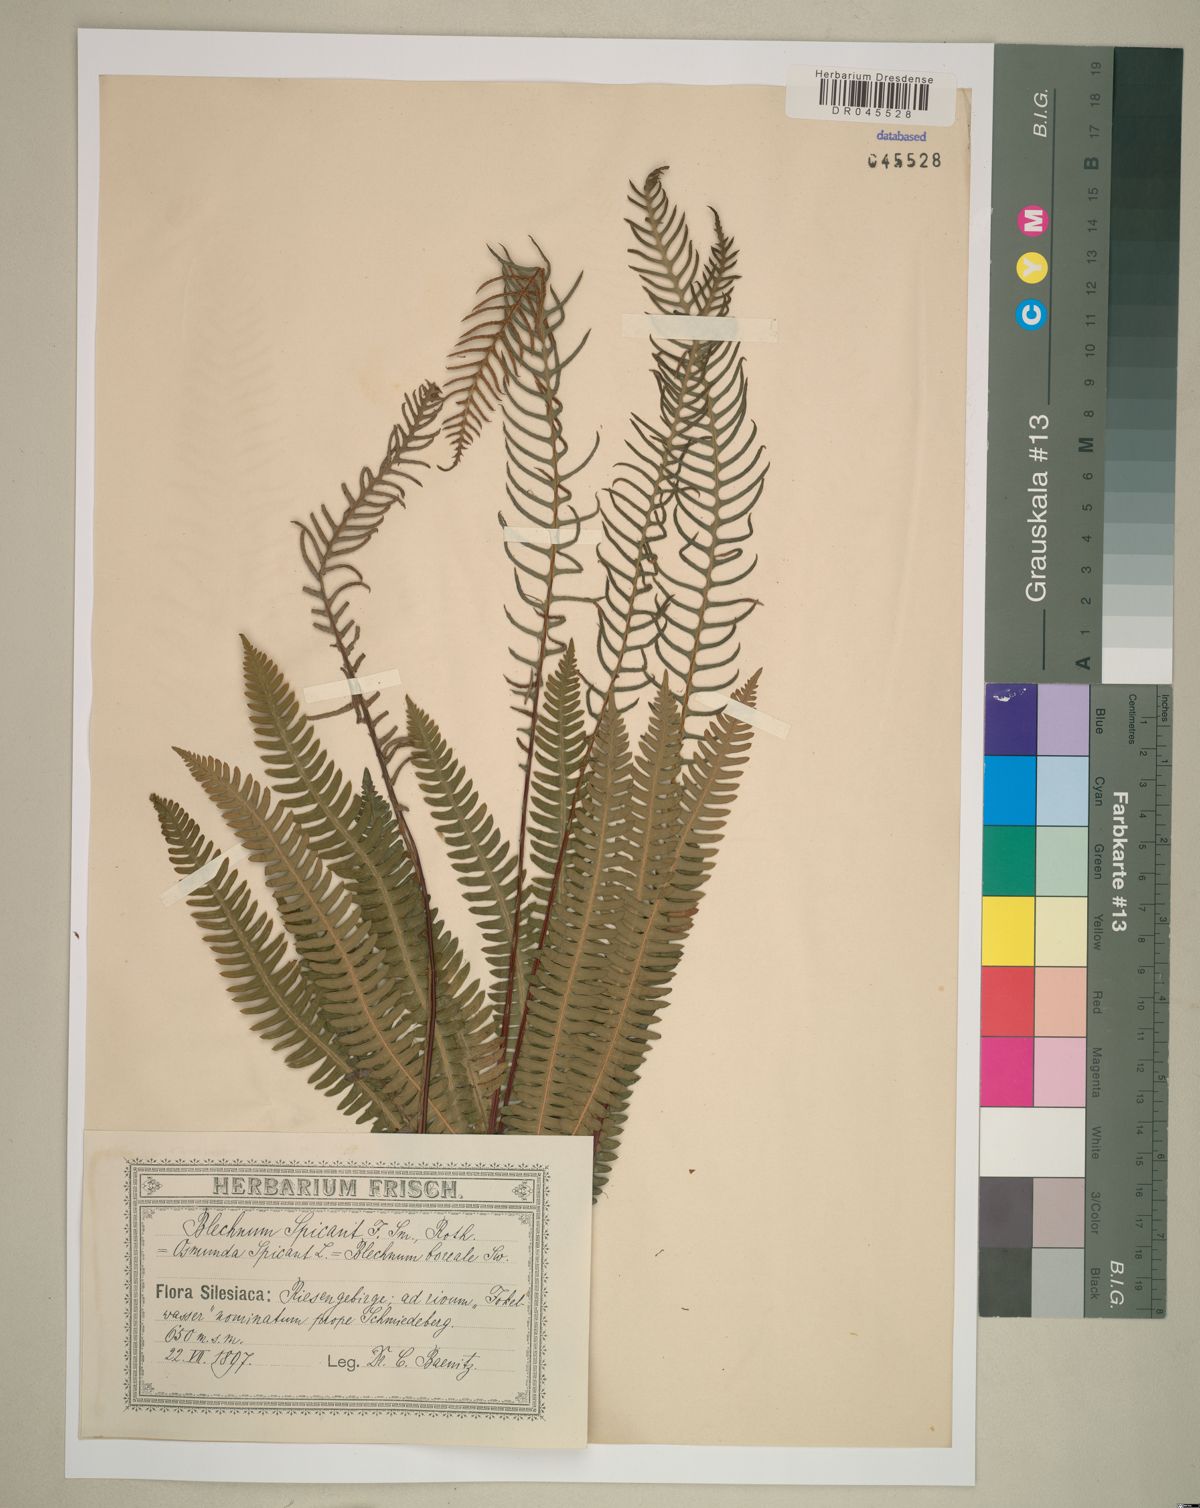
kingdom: Plantae
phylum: Tracheophyta
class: Polypodiopsida
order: Polypodiales
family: Blechnaceae
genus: Struthiopteris
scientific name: Struthiopteris spicant
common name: Deer fern
